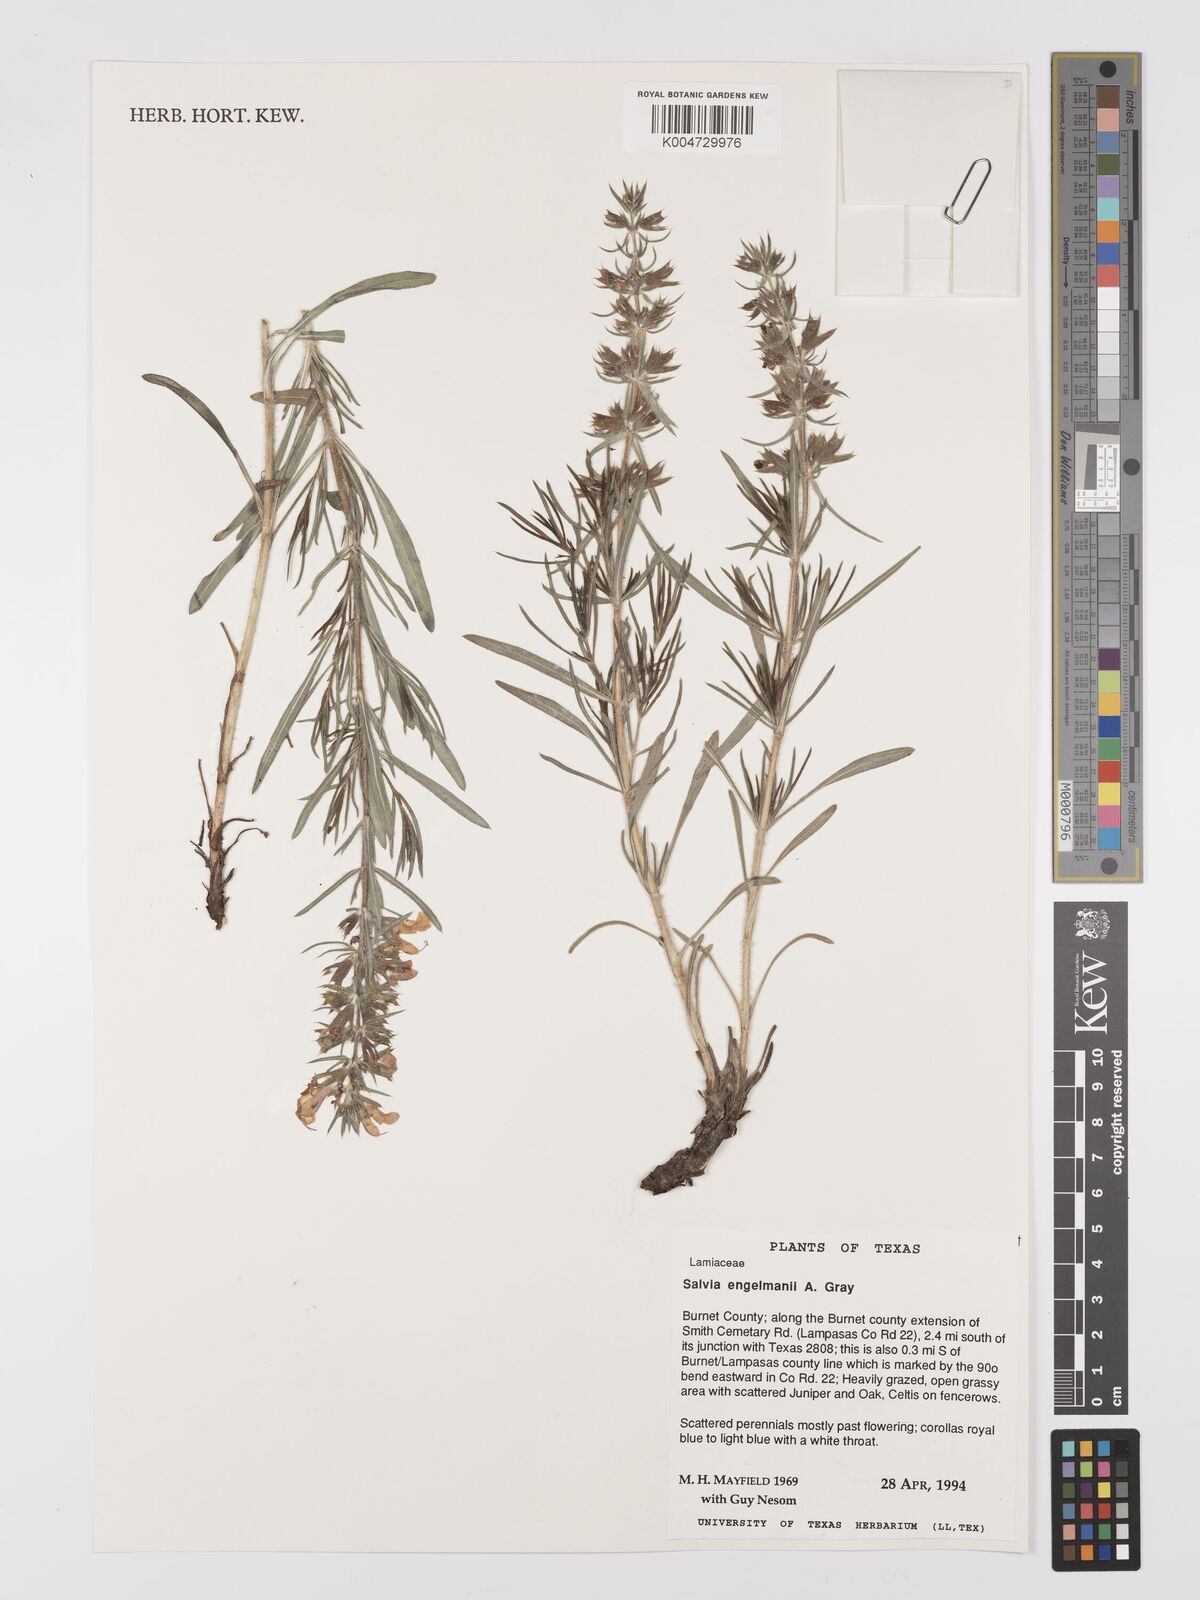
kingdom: Plantae
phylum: Tracheophyta
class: Magnoliopsida
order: Lamiales
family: Lamiaceae
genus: Salvia
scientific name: Salvia
